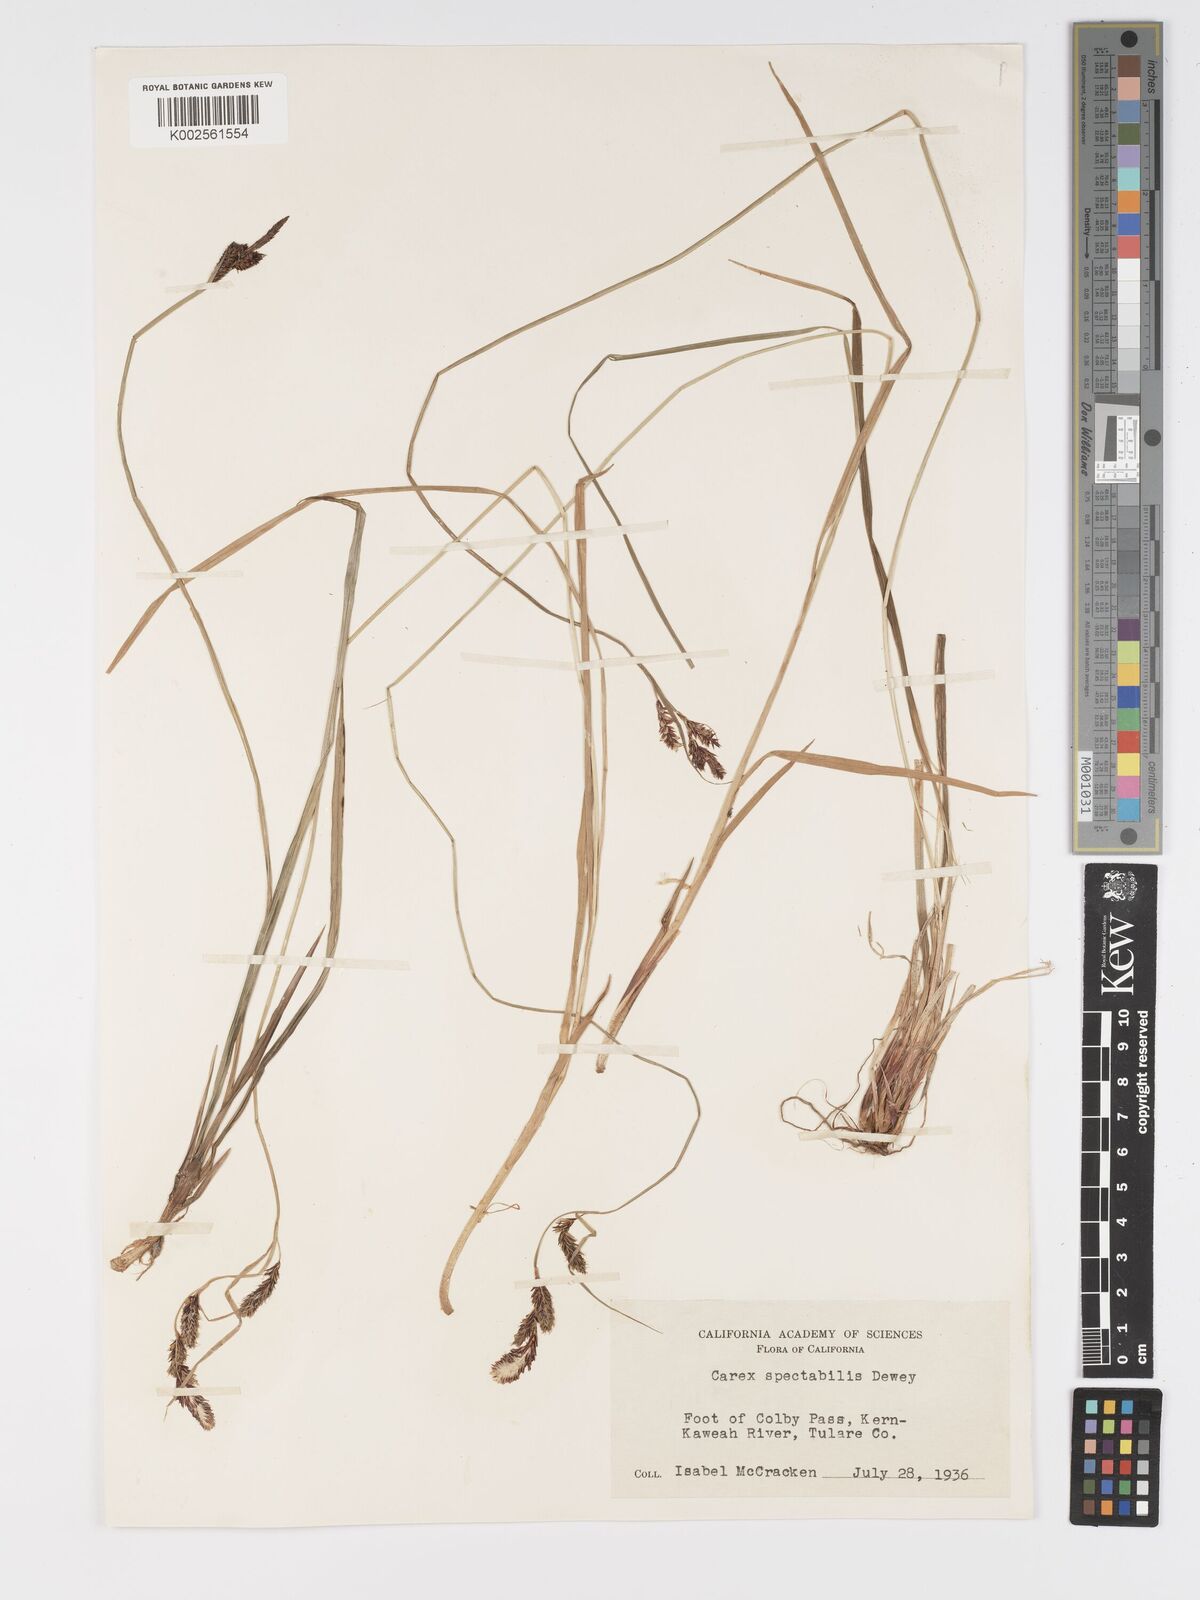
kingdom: Plantae
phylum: Tracheophyta
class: Liliopsida
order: Poales
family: Cyperaceae
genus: Carex
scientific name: Carex spectabilis
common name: Northwestern showy sedge
